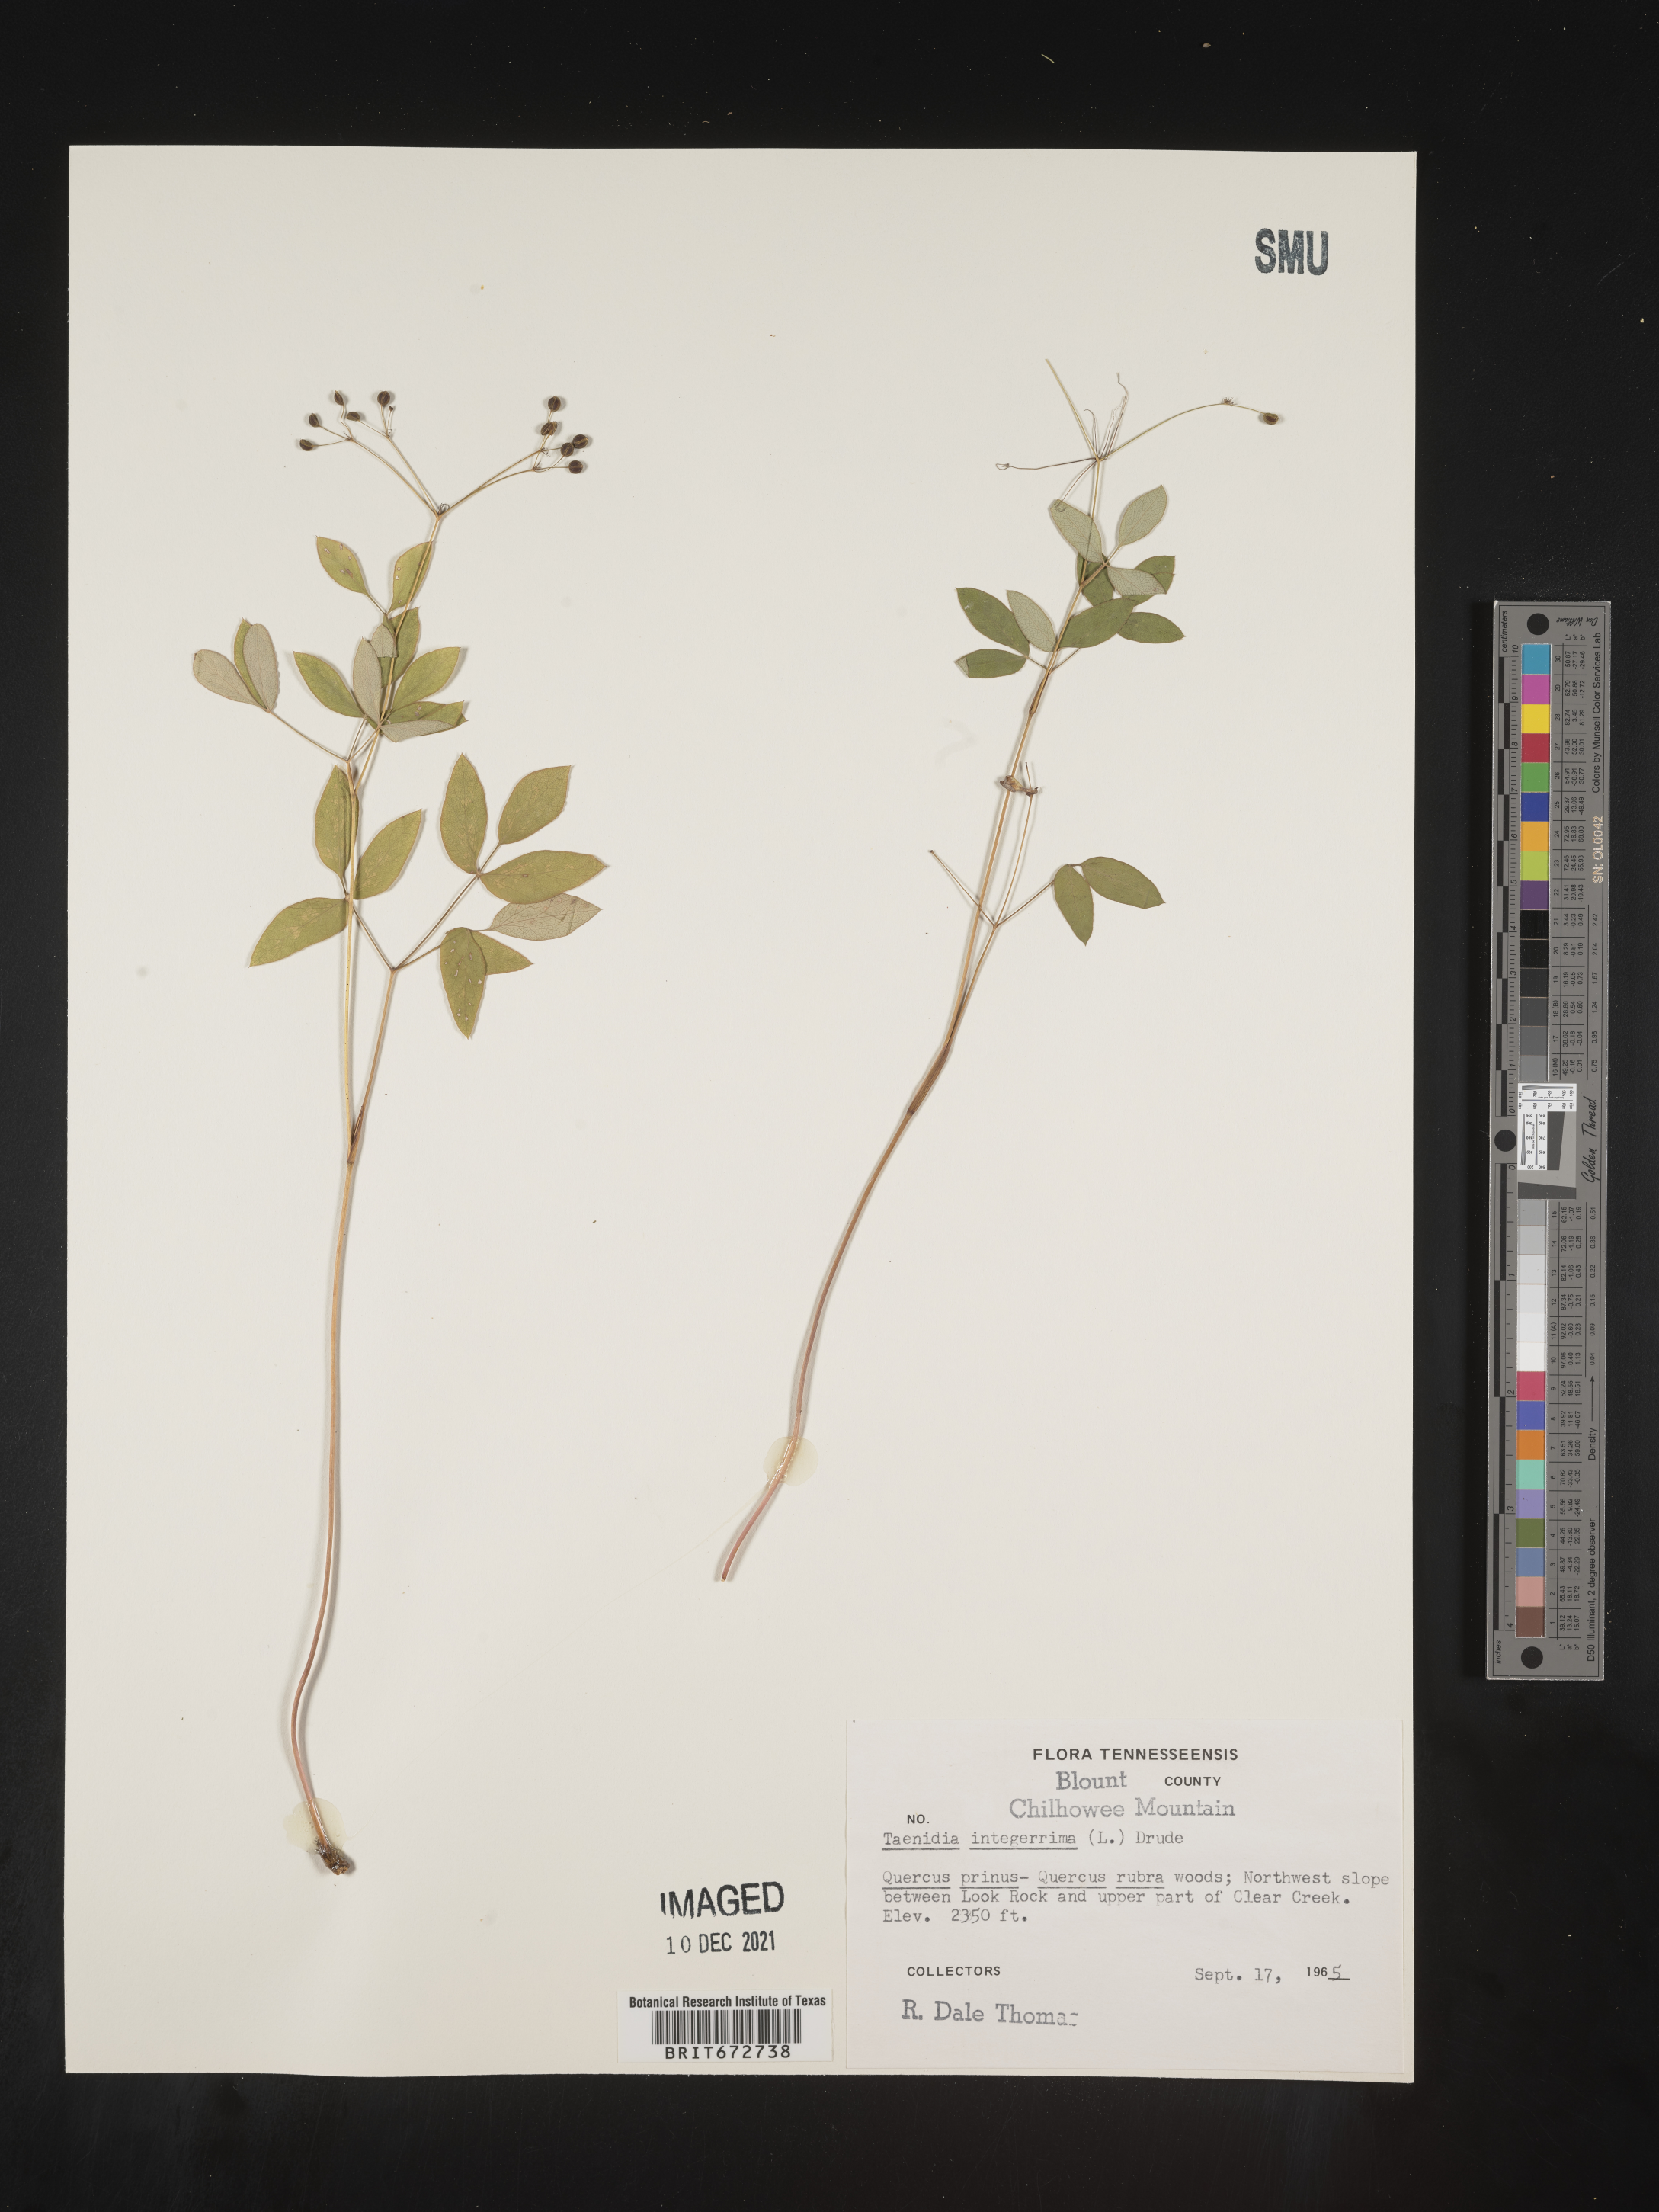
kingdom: Plantae
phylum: Tracheophyta
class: Magnoliopsida
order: Apiales
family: Apiaceae
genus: Taenidia
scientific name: Taenidia
